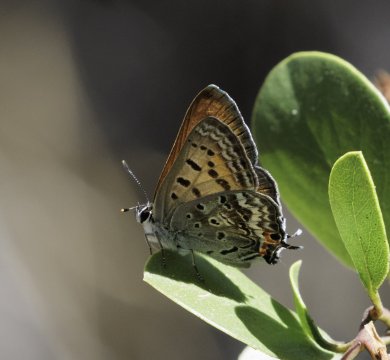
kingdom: Animalia
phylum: Arthropoda
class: Insecta
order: Lepidoptera
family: Sesiidae
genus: Sesia
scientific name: Sesia Lycaena arota
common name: Tailed Copper
